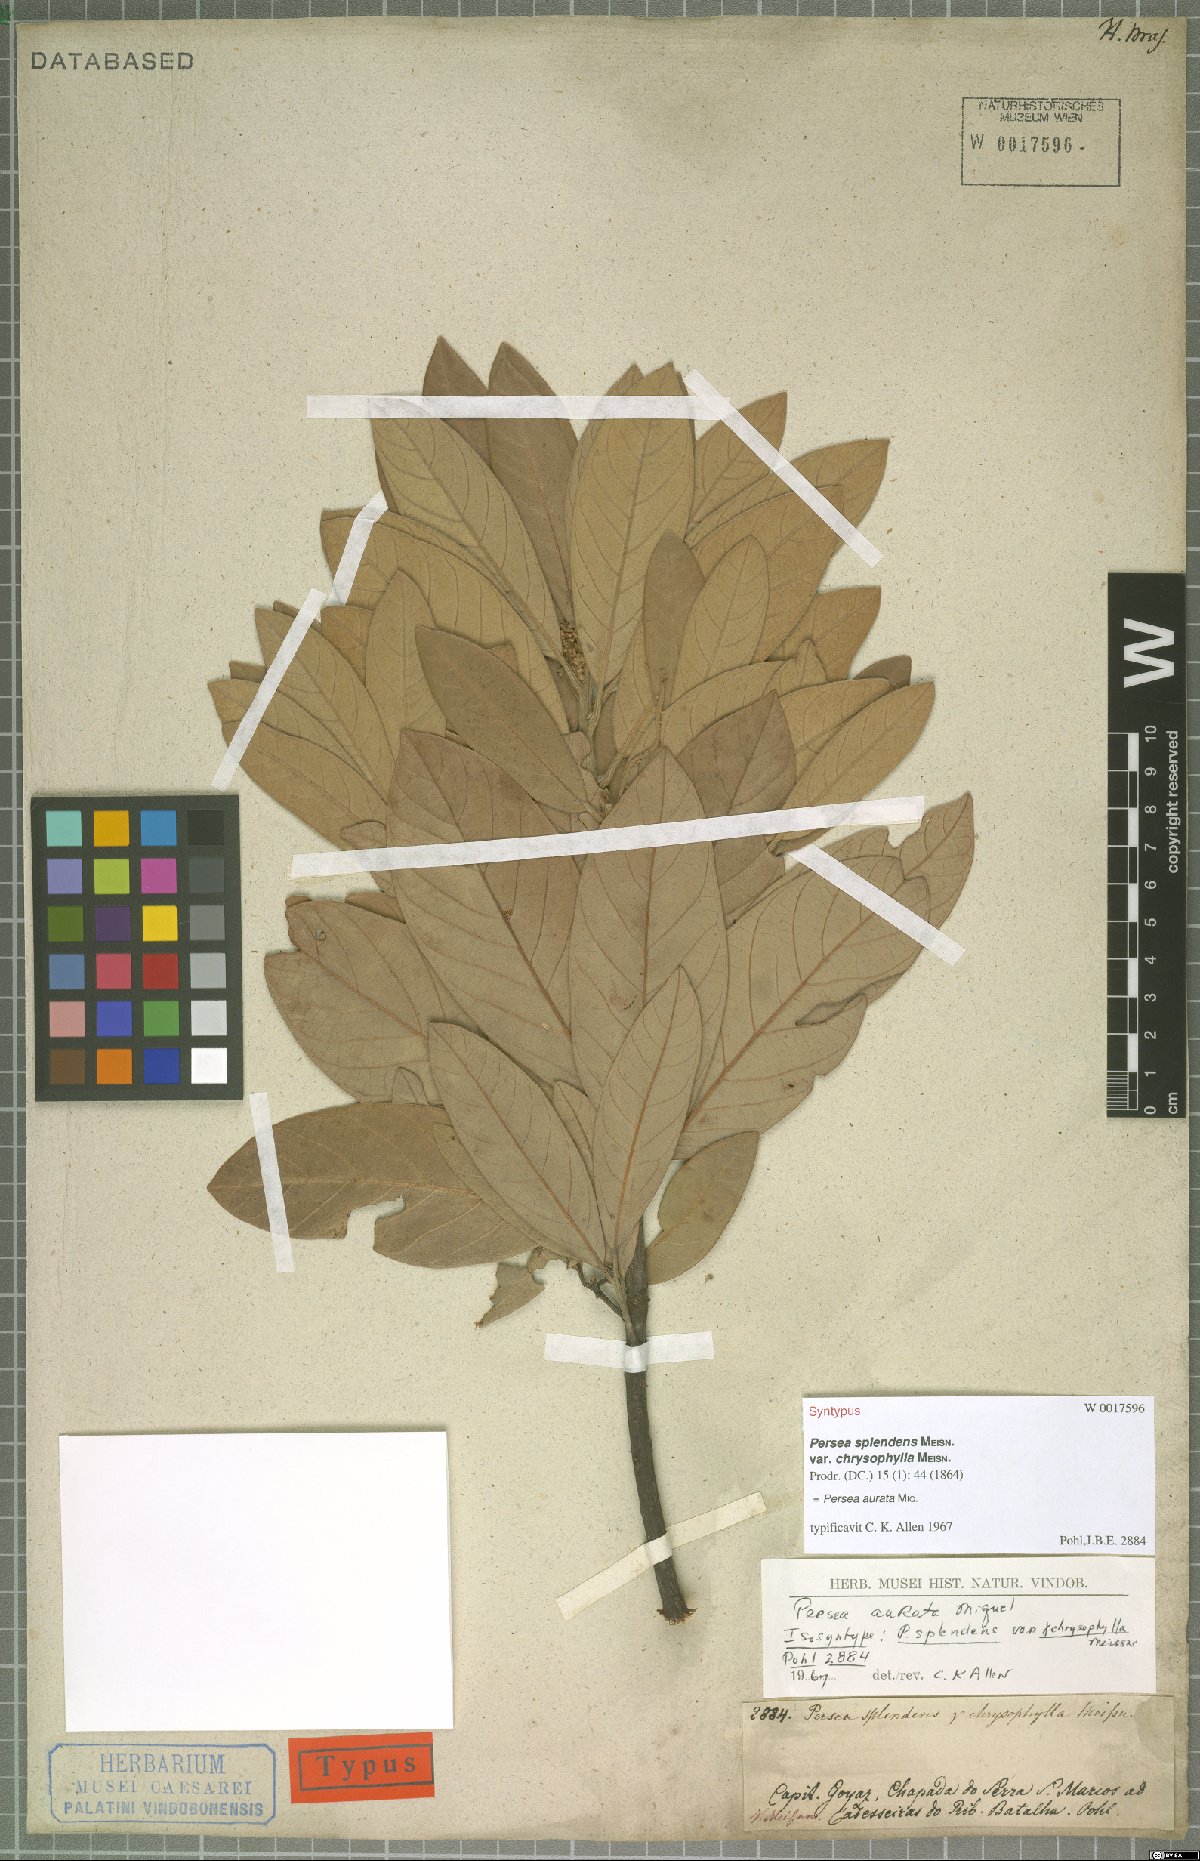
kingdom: Plantae
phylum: Tracheophyta
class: Magnoliopsida
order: Laurales
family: Lauraceae
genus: Persea
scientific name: Persea aurata
